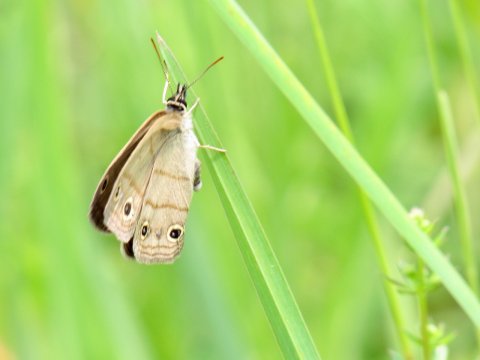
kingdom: Animalia
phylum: Arthropoda
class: Insecta
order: Lepidoptera
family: Nymphalidae
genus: Euptychia
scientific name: Euptychia cymela
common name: Little Wood Satyr
